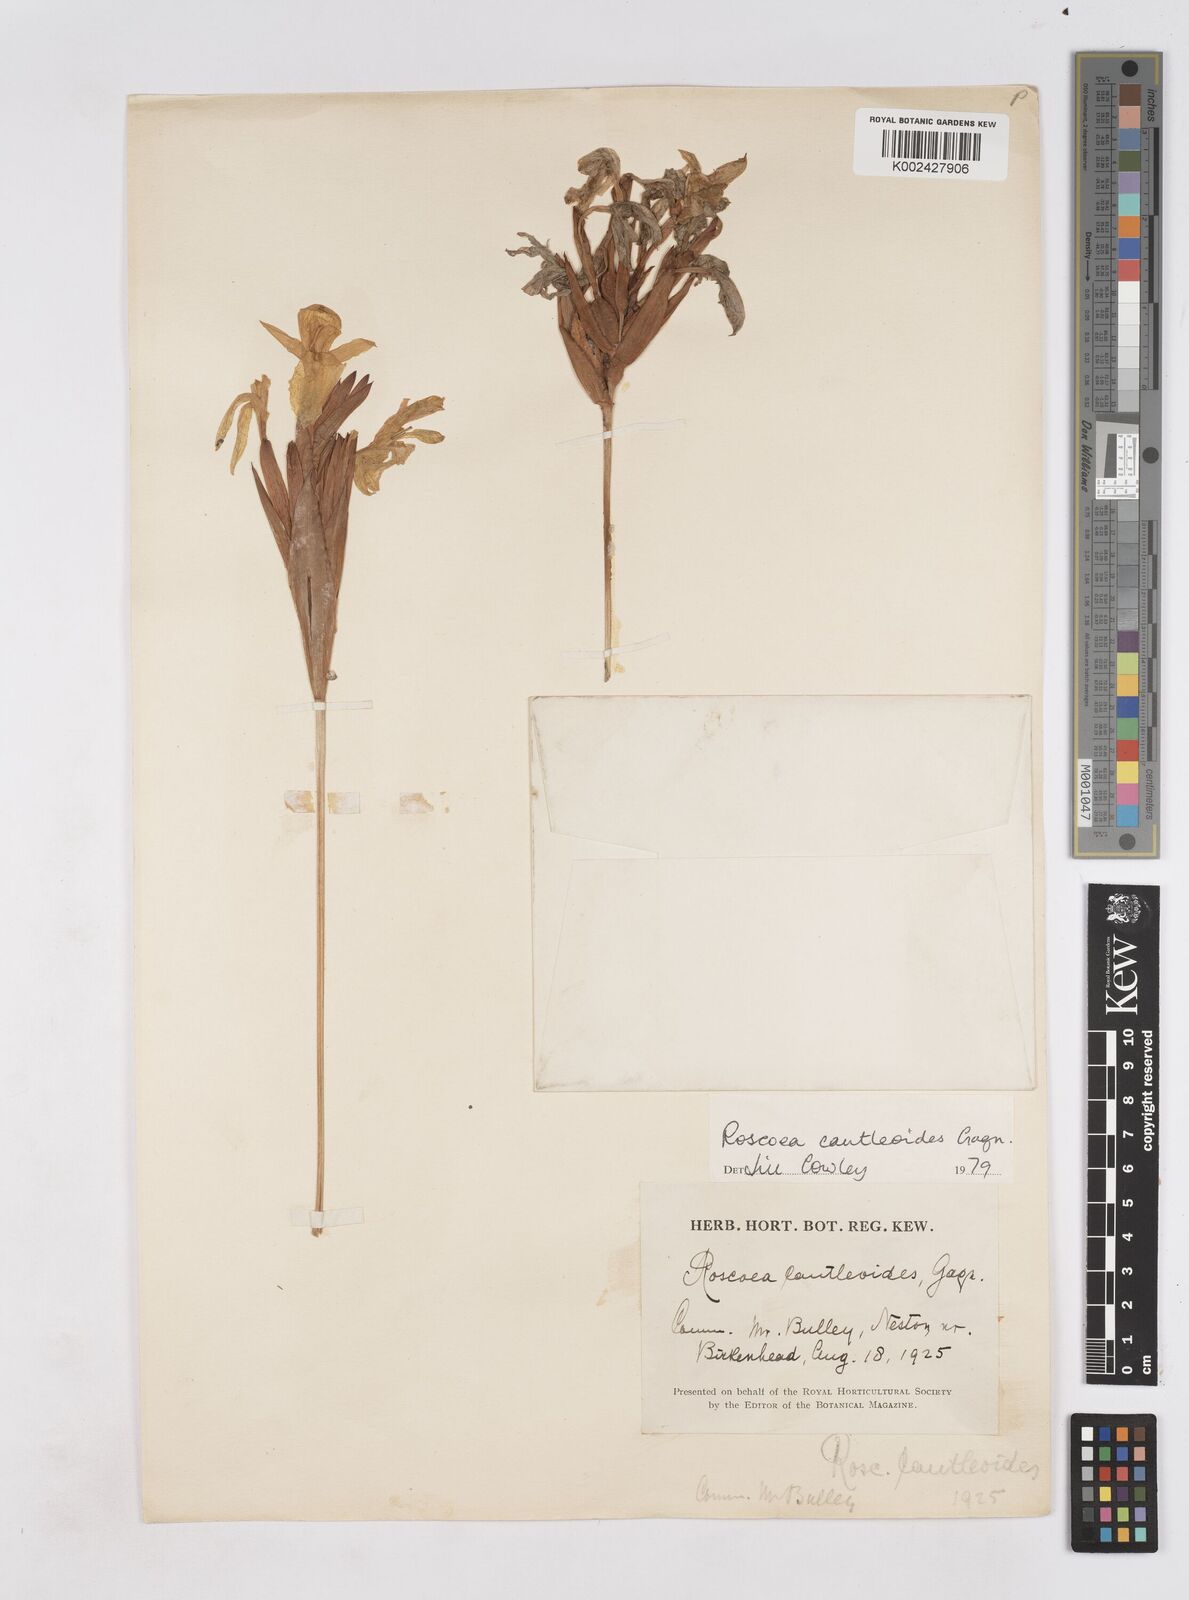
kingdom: Plantae
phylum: Tracheophyta
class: Liliopsida
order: Zingiberales
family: Zingiberaceae
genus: Roscoea
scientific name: Roscoea cautleyoides
